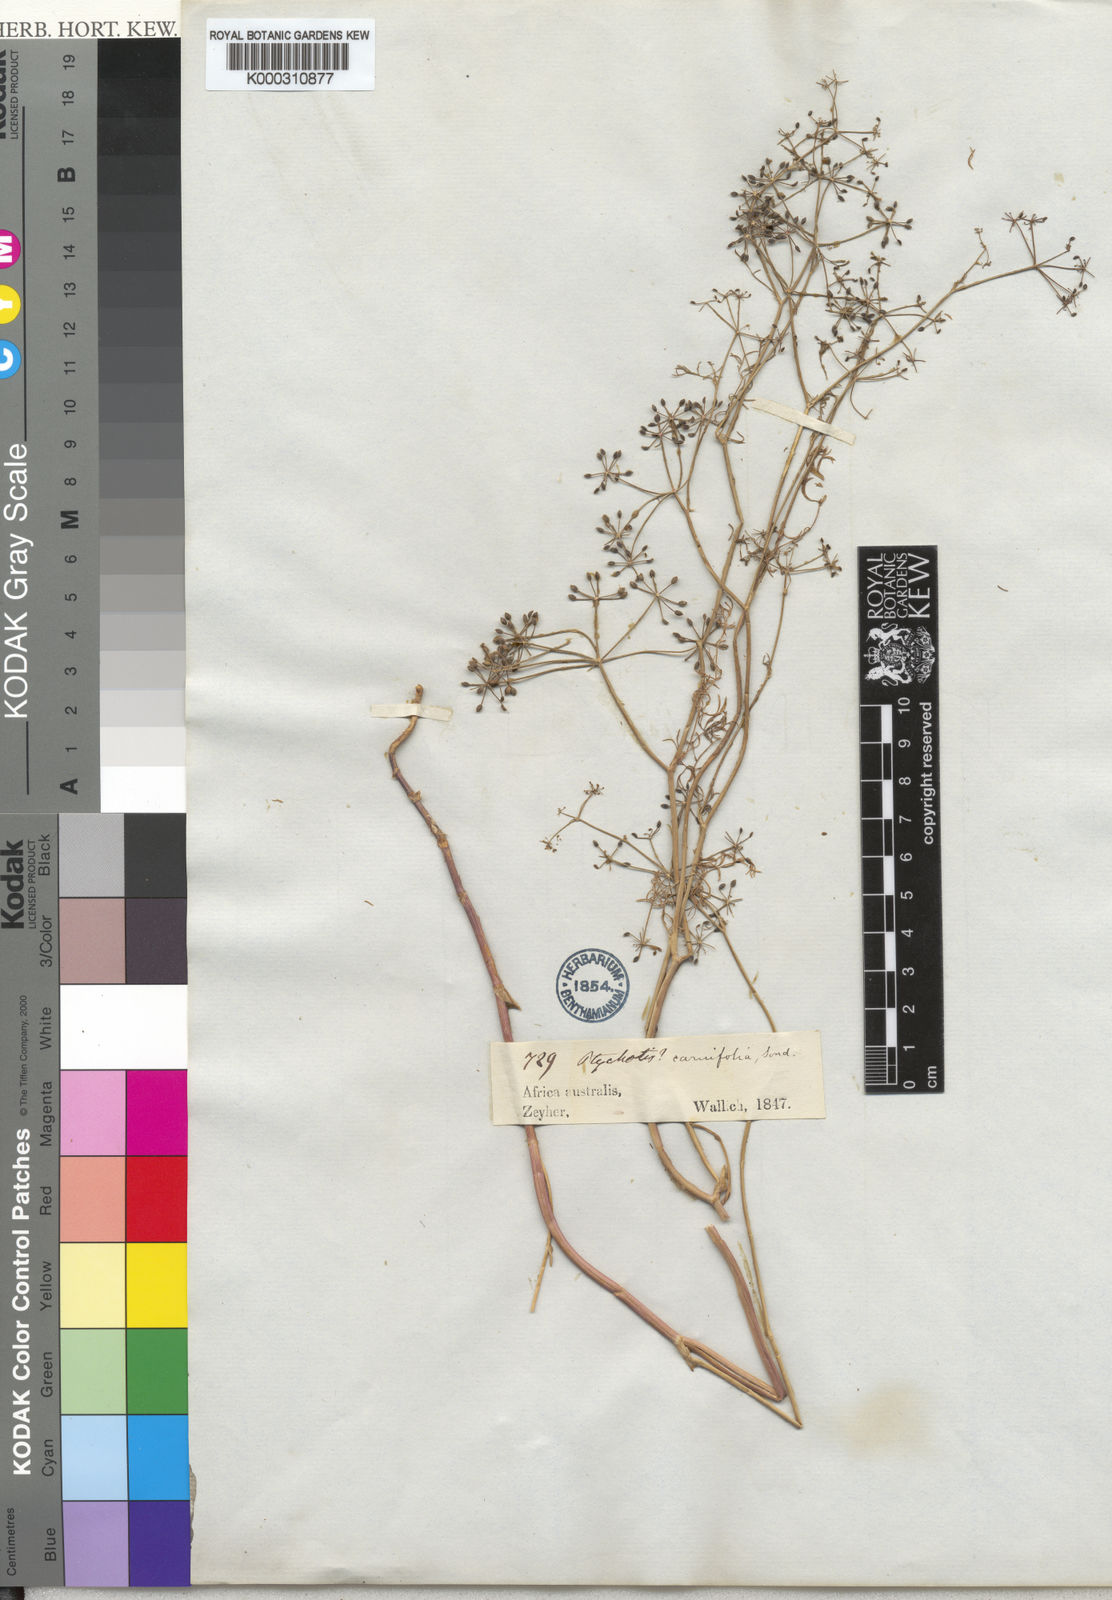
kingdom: Plantae
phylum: Tracheophyta
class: Magnoliopsida
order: Apiales
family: Apiaceae
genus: Dasispermum
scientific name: Dasispermum hispidum
